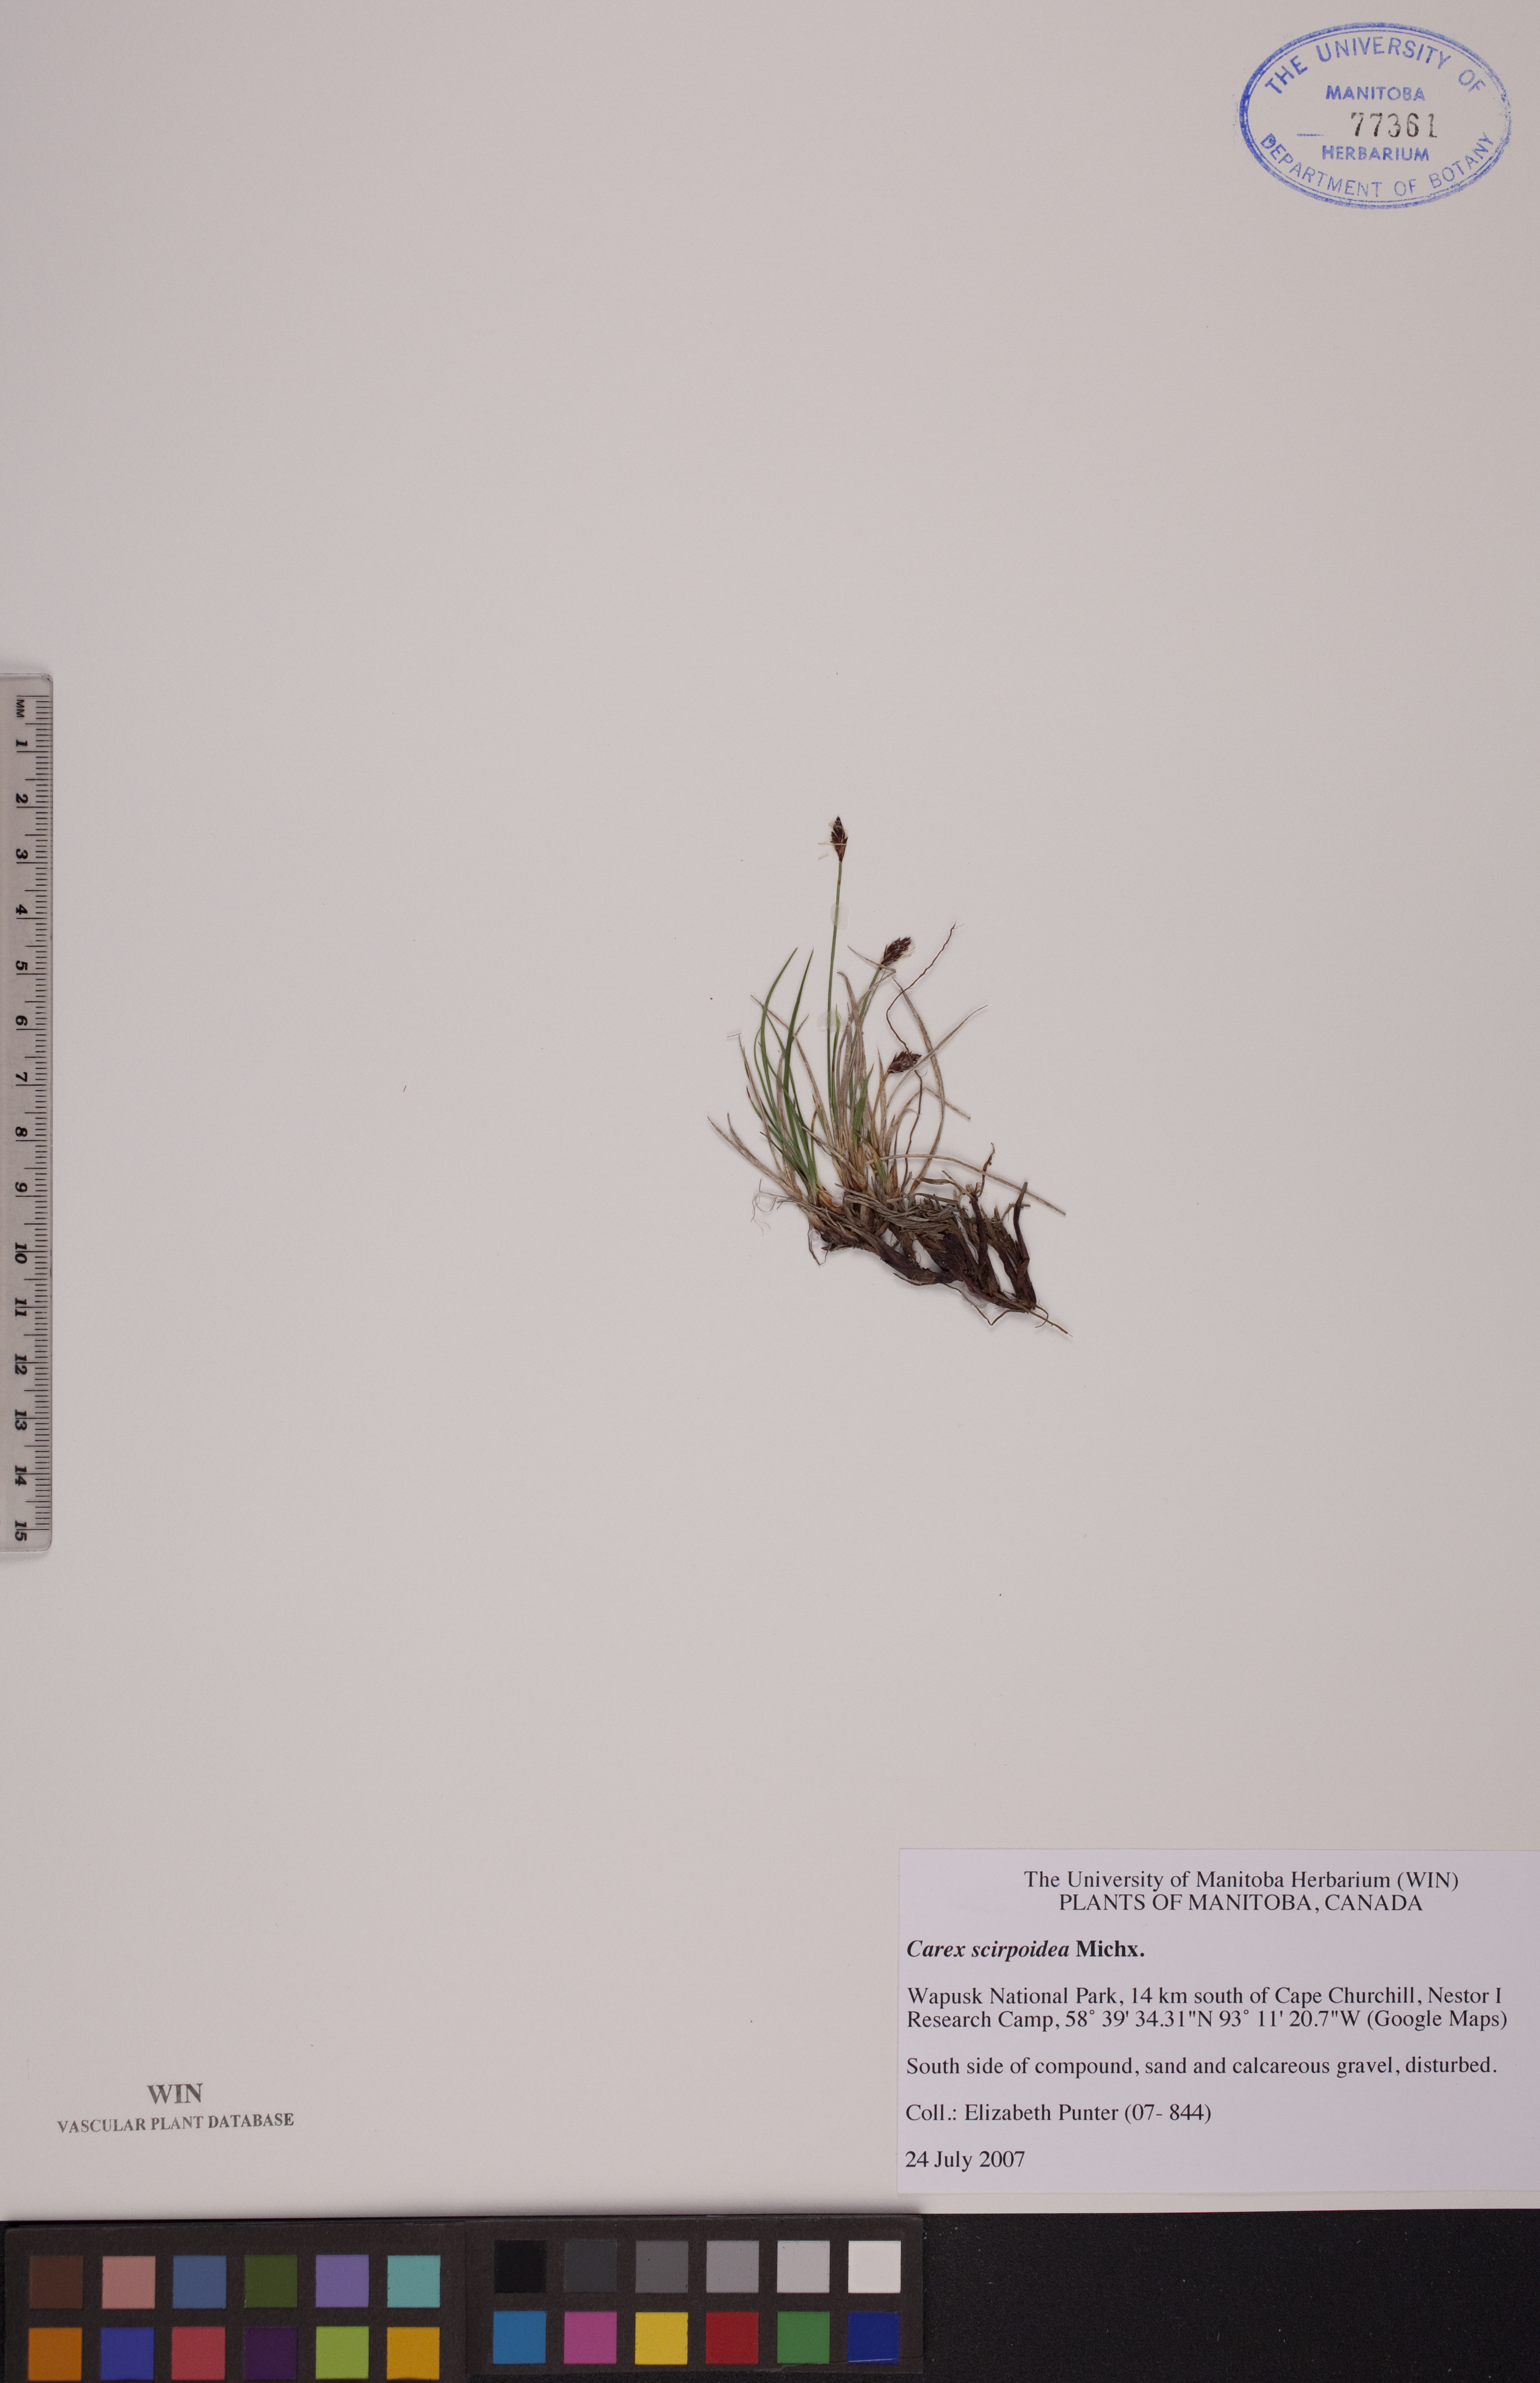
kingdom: Plantae
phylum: Tracheophyta
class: Liliopsida
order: Poales
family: Cyperaceae
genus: Carex
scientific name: Carex scirpoidea
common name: Canada single-spike sedge
